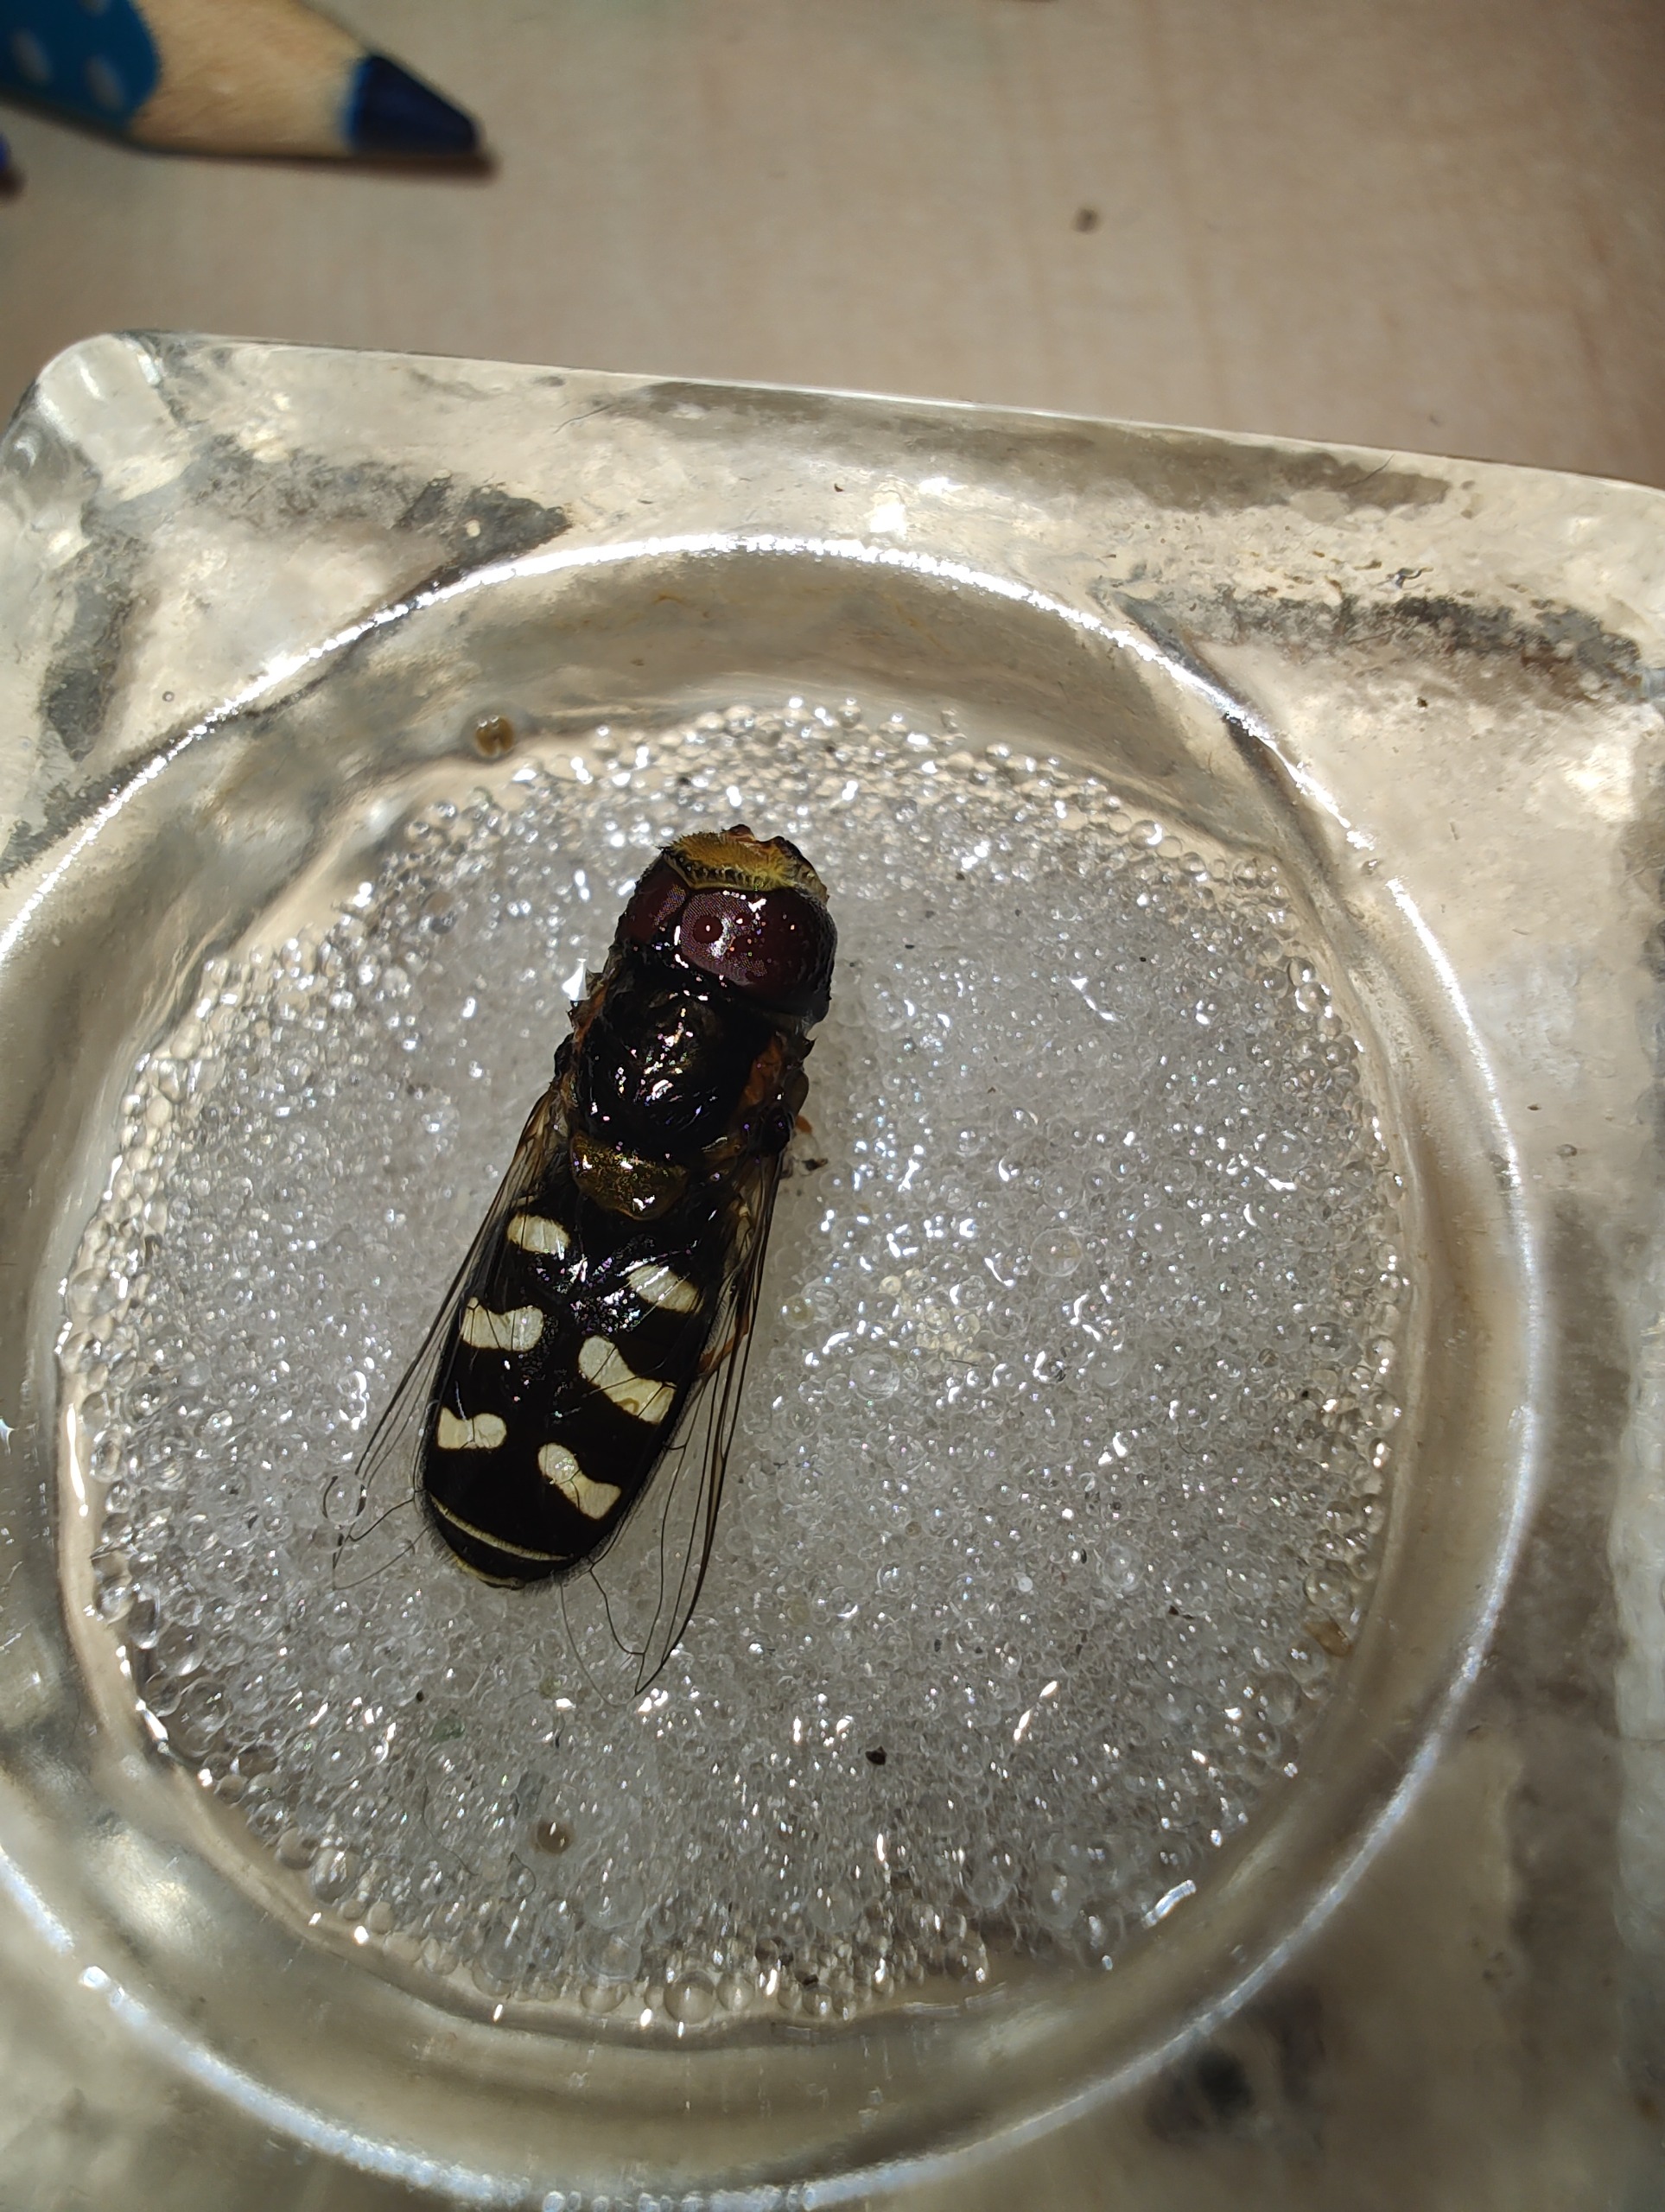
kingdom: Animalia
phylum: Arthropoda
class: Insecta
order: Diptera
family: Syrphidae
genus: Scaeva
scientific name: Scaeva pyrastri
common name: Hvidplettet agersvirreflue
